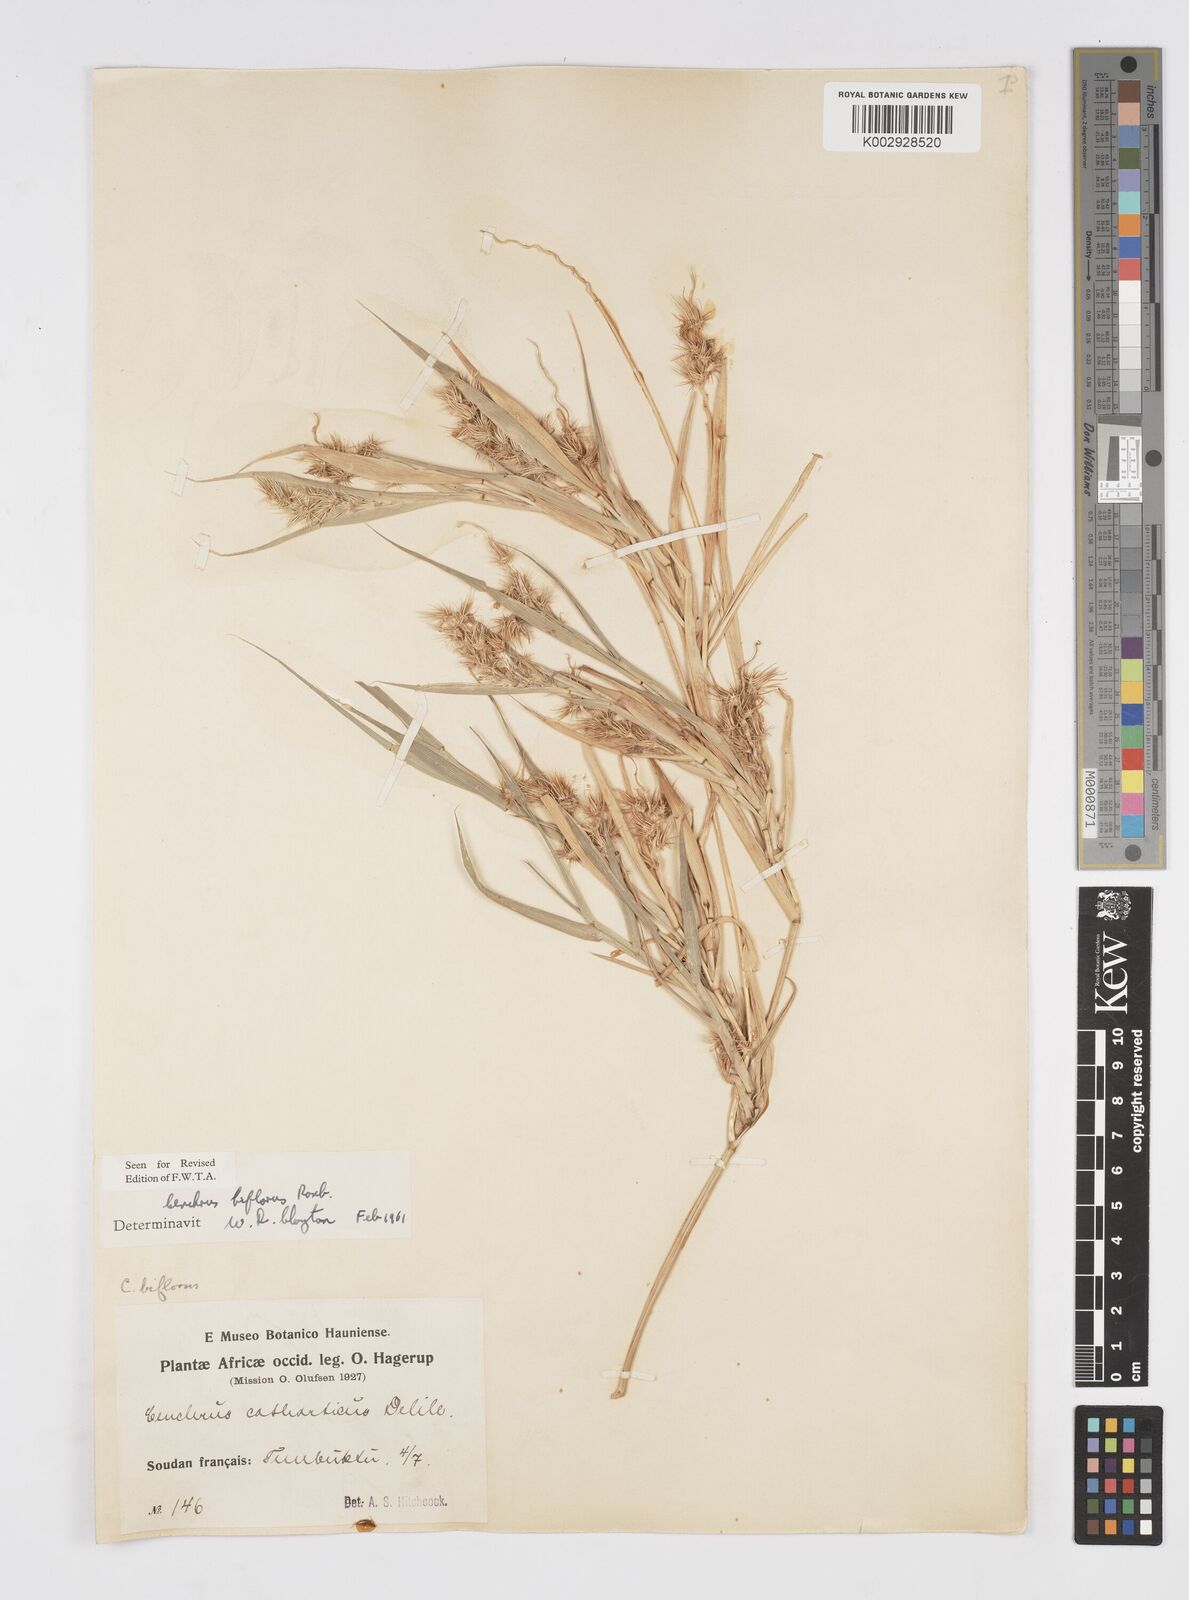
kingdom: Plantae
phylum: Tracheophyta
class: Liliopsida
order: Poales
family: Poaceae
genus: Cenchrus
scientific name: Cenchrus biflorus
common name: Indian sandbur
